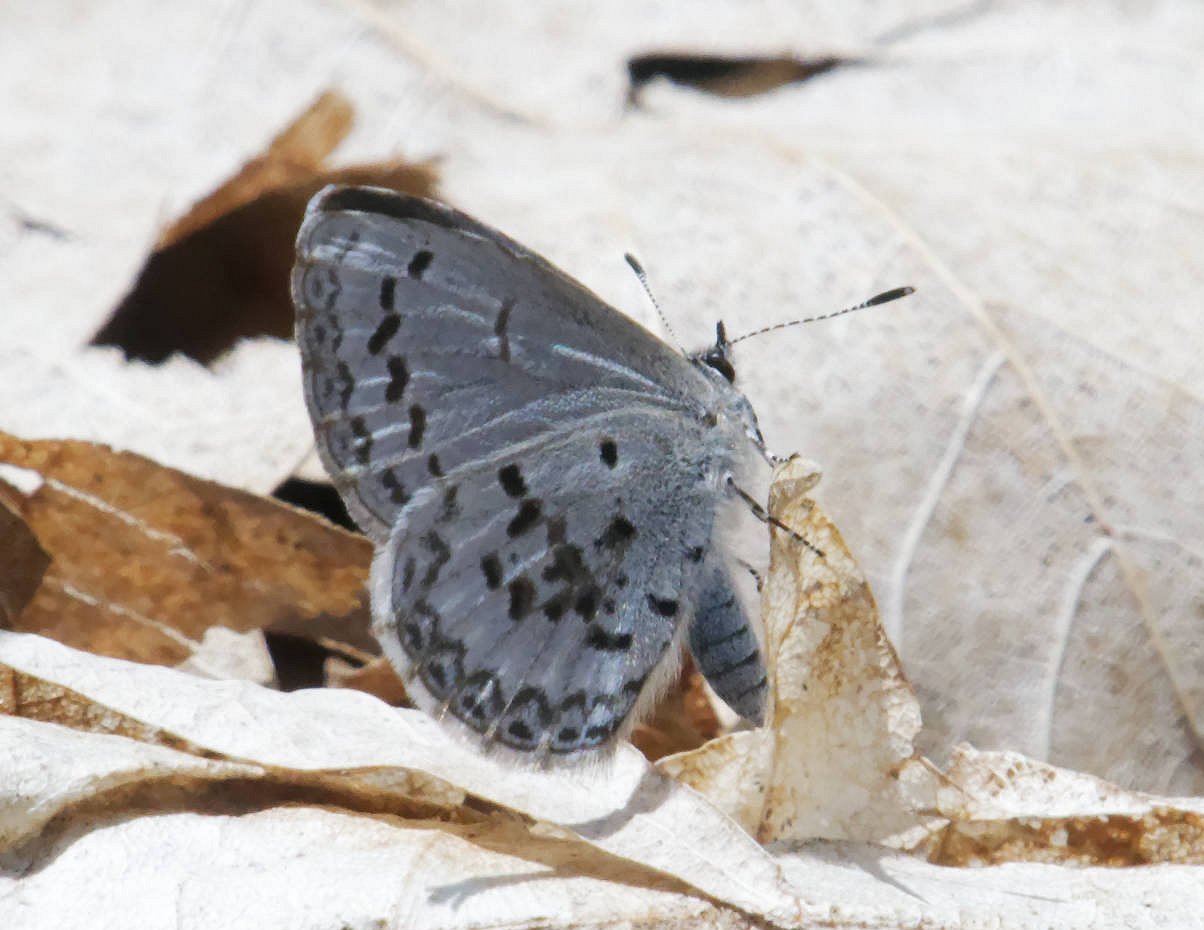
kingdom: Animalia
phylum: Arthropoda
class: Insecta
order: Lepidoptera
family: Lycaenidae
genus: Celastrina
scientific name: Celastrina lucia
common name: Northern Spring Azure
